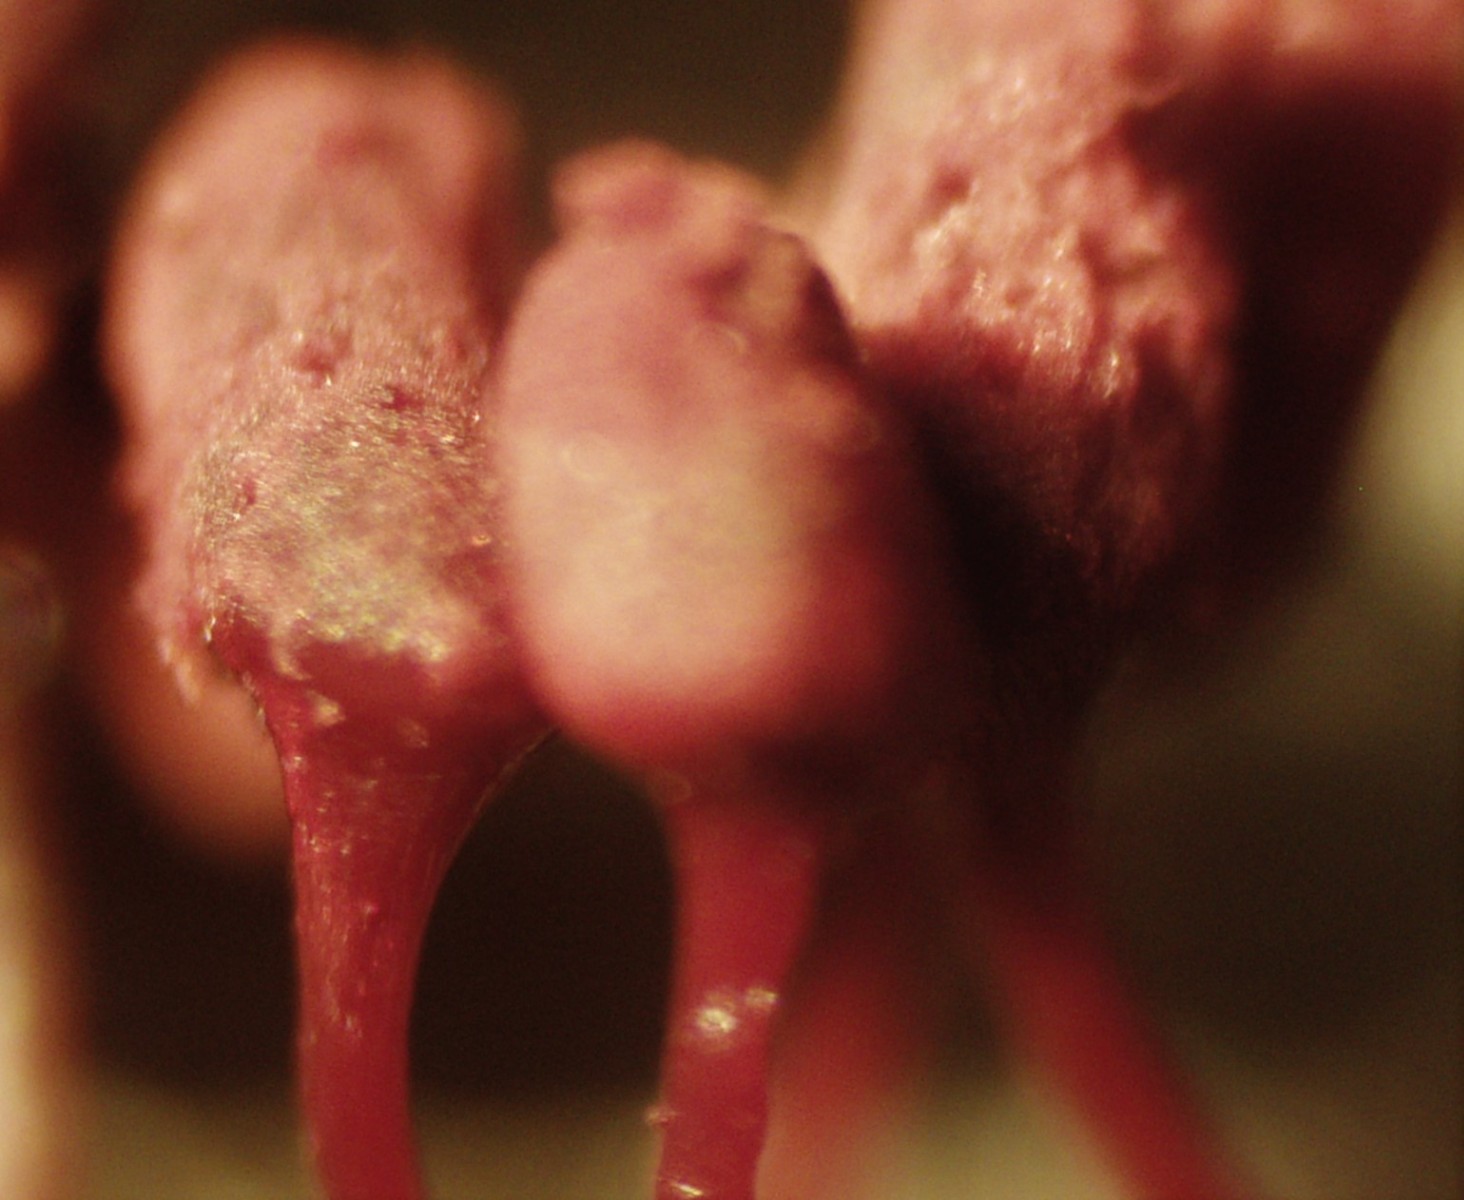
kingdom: Protozoa
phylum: Amoebozoa
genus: Arcyria
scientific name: Arcyria
